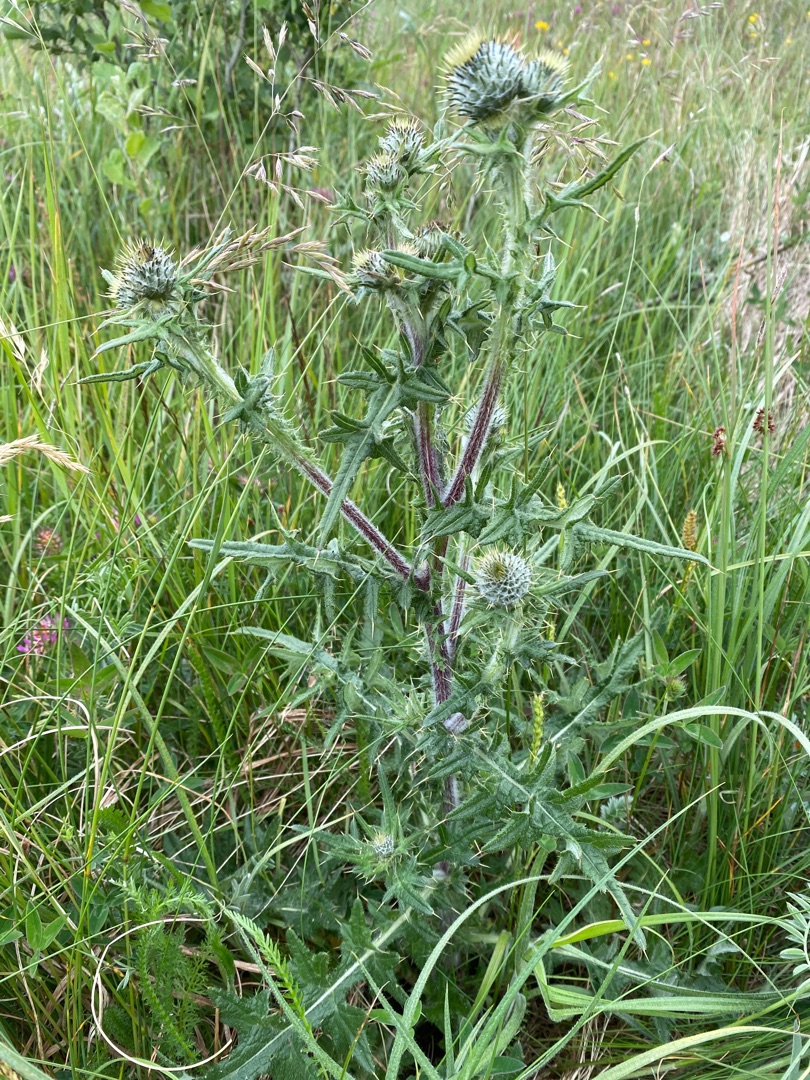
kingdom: Plantae
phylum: Tracheophyta
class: Magnoliopsida
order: Asterales
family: Asteraceae
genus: Cirsium
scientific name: Cirsium vulgare
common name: Horse-tidsel
